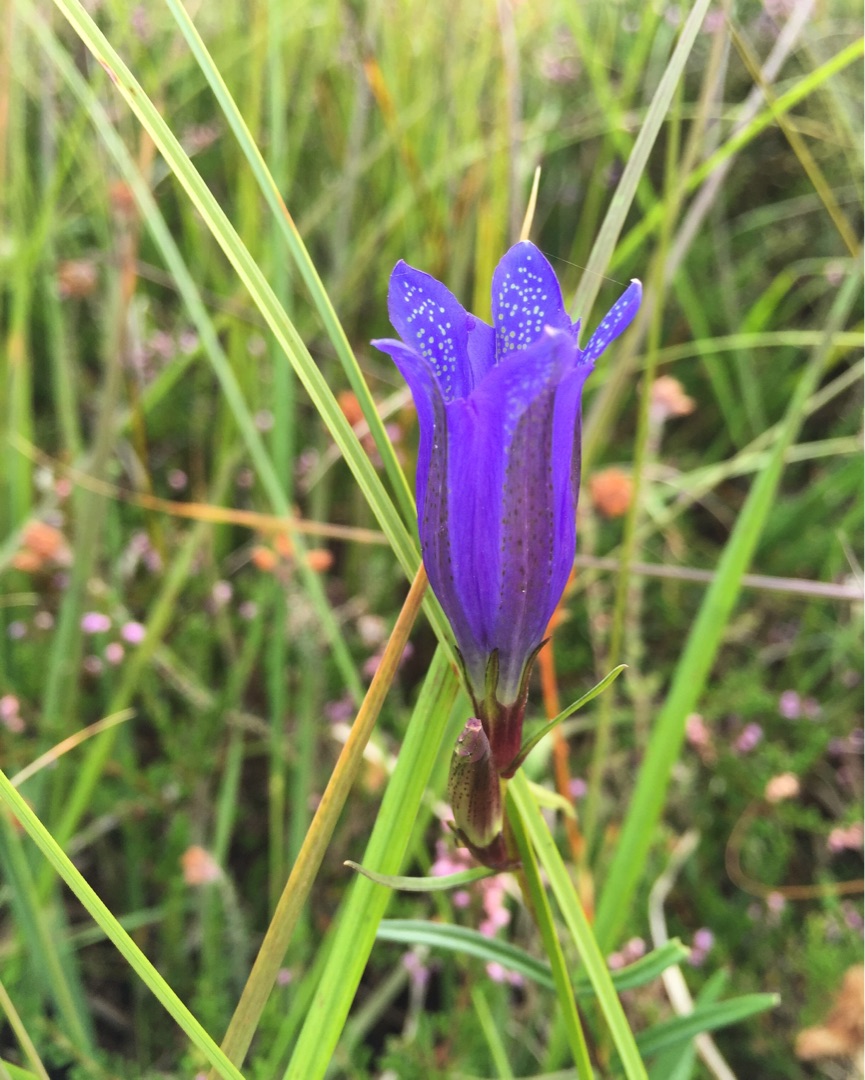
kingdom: Plantae
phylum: Tracheophyta
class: Magnoliopsida
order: Gentianales
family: Gentianaceae
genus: Gentiana
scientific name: Gentiana pneumonanthe
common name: Klokke-ensian
